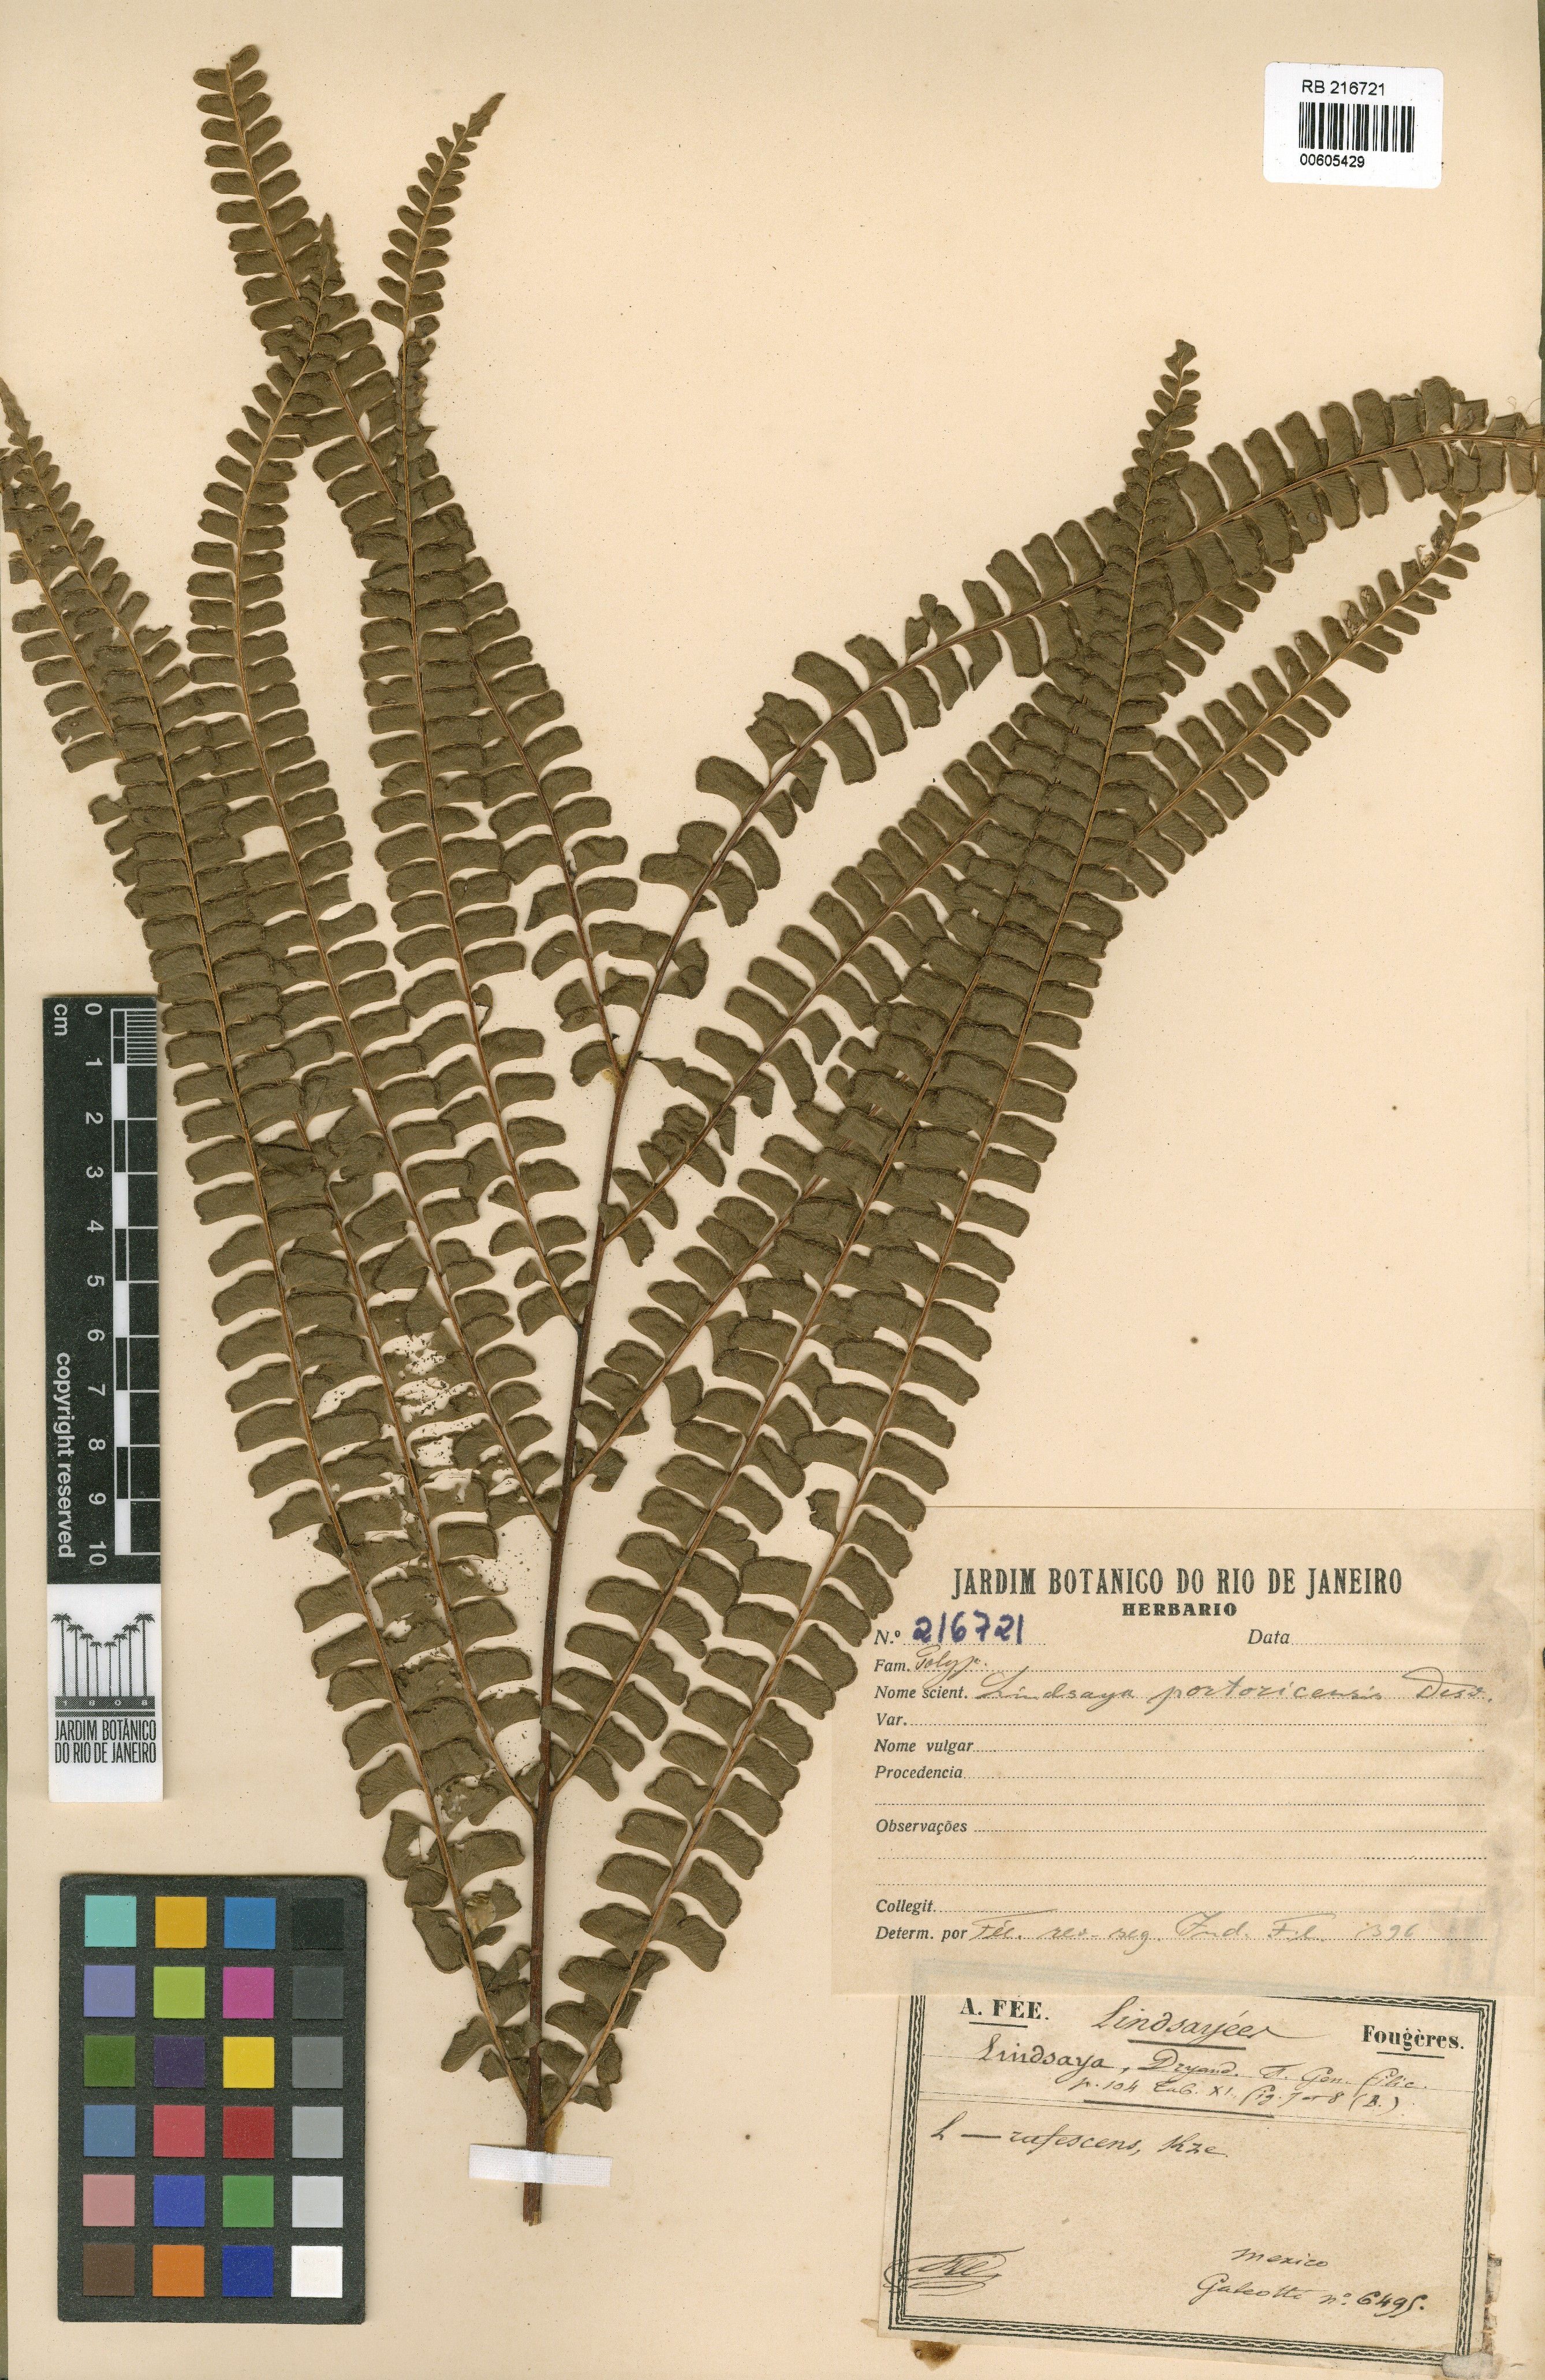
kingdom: Plantae
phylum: Tracheophyta
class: Polypodiopsida
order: Polypodiales
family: Lindsaeaceae
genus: Lindsaea
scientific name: Lindsaea portoricensis
